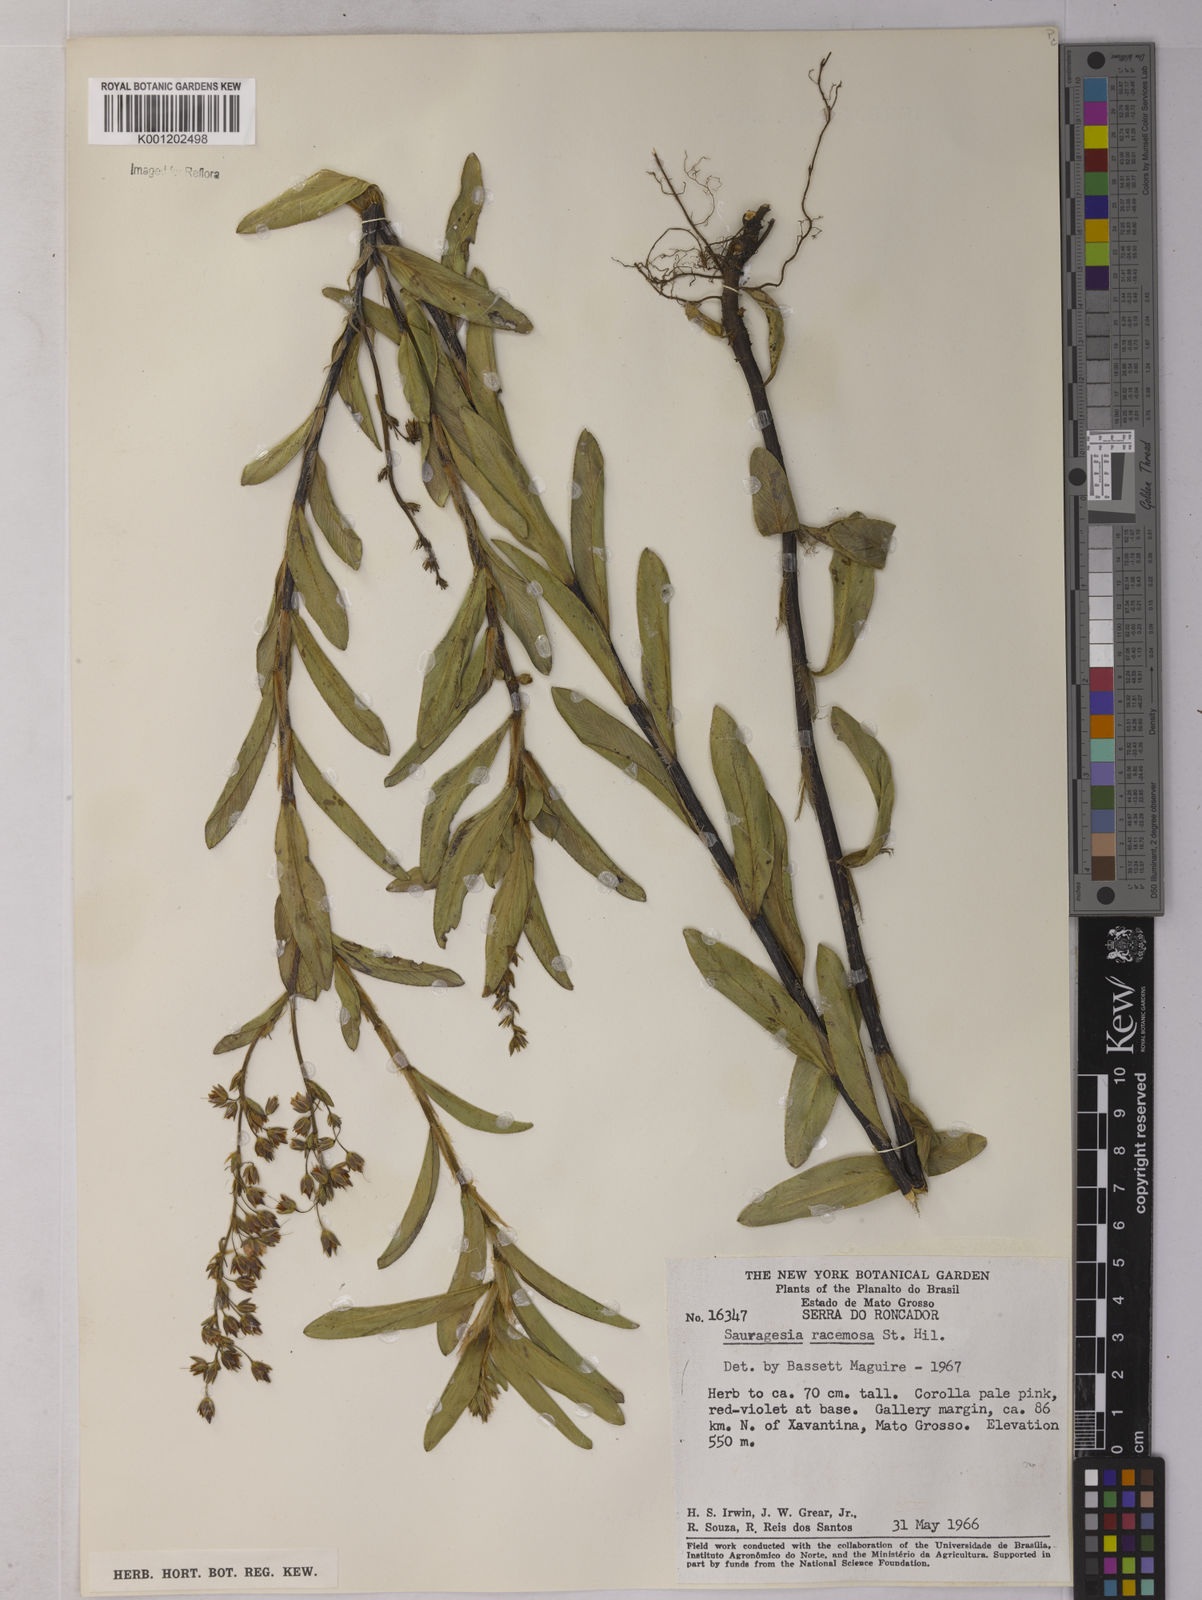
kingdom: Plantae
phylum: Tracheophyta
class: Magnoliopsida
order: Malpighiales
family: Ochnaceae
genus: Sauvagesia
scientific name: Sauvagesia racemosa
